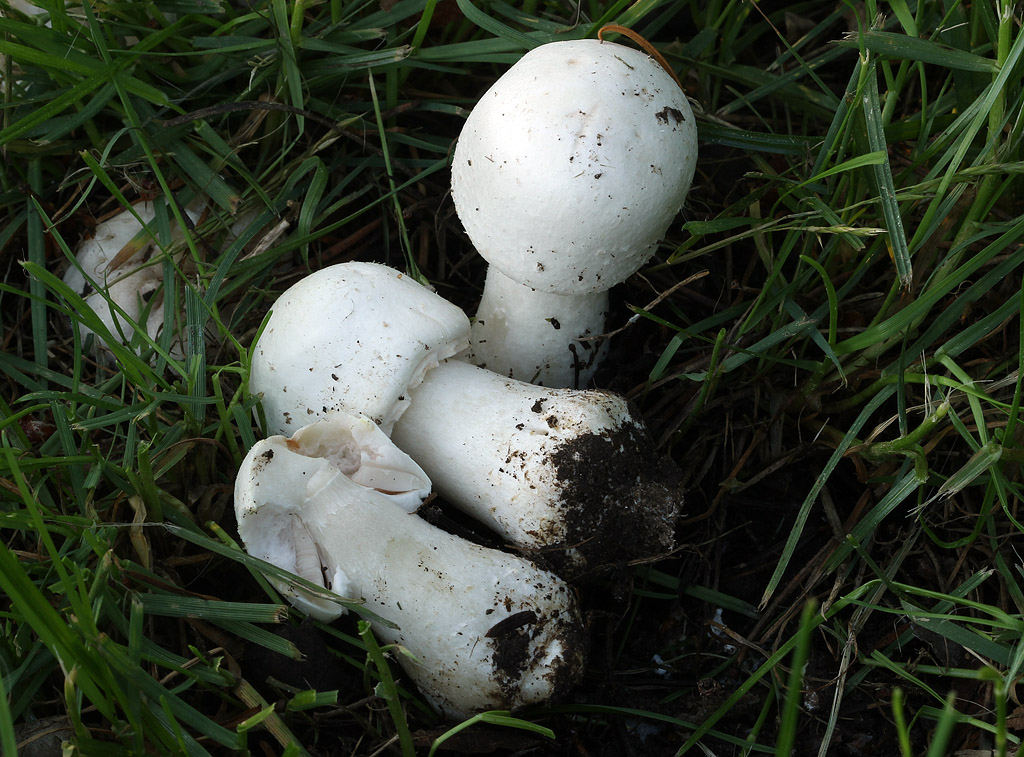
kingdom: Fungi
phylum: Basidiomycota
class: Agaricomycetes
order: Agaricales
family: Agaricaceae
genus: Agaricus
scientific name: Agaricus arvensis
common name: ager-champignon
